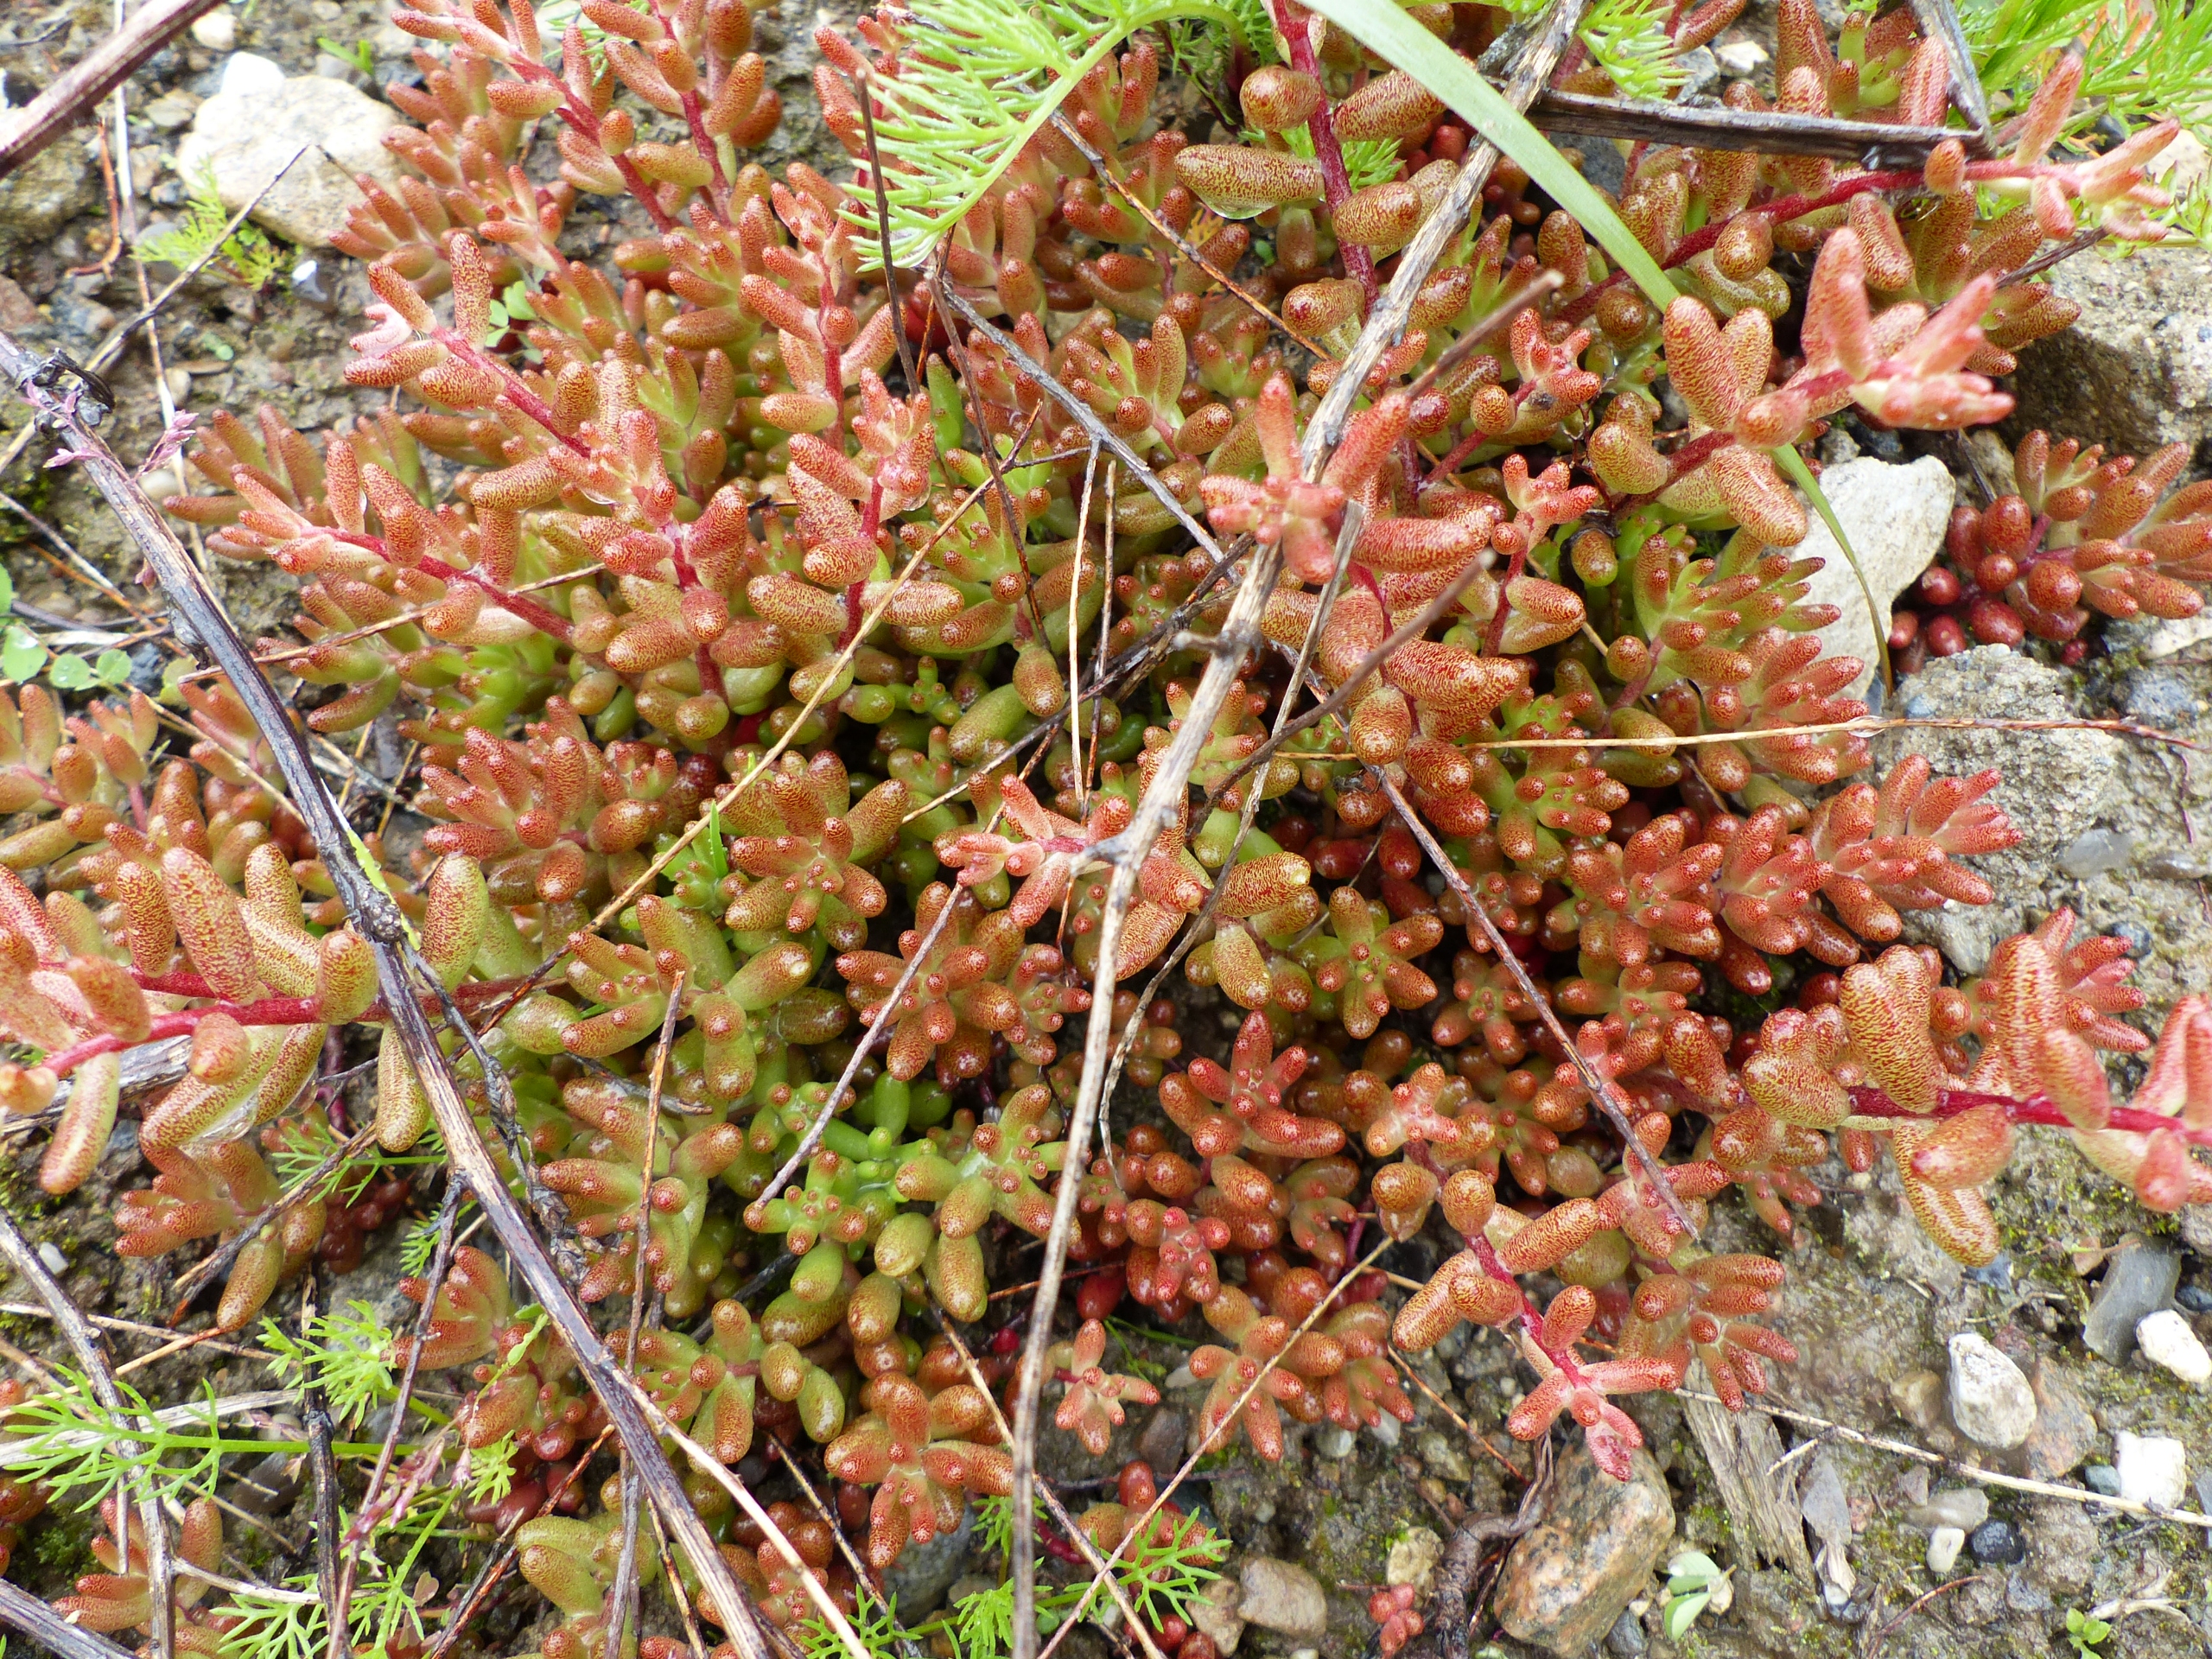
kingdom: Plantae
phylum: Tracheophyta
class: Magnoliopsida
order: Saxifragales
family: Crassulaceae
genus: Sedum
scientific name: Sedum album
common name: Hvid stenurt
